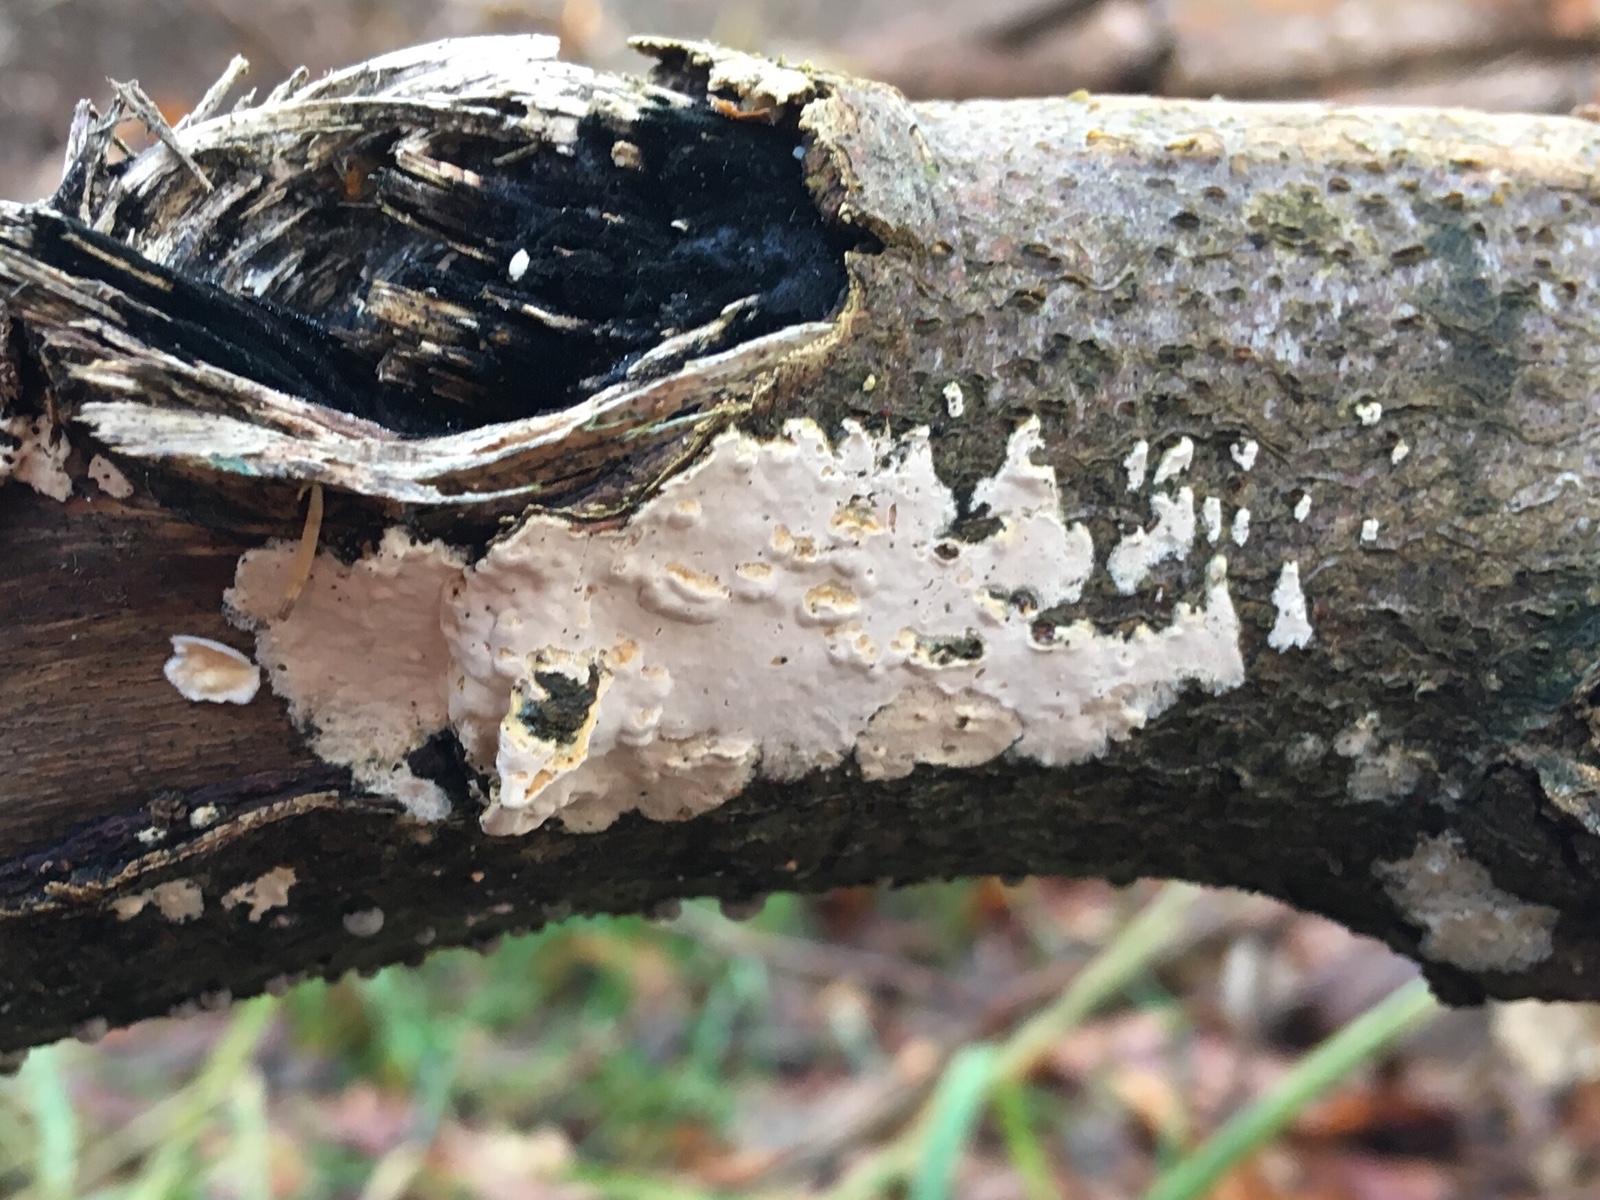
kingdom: Fungi
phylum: Basidiomycota
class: Agaricomycetes
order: Agaricales
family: Physalacriaceae
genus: Cylindrobasidium
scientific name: Cylindrobasidium evolvens
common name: sprækkehinde
